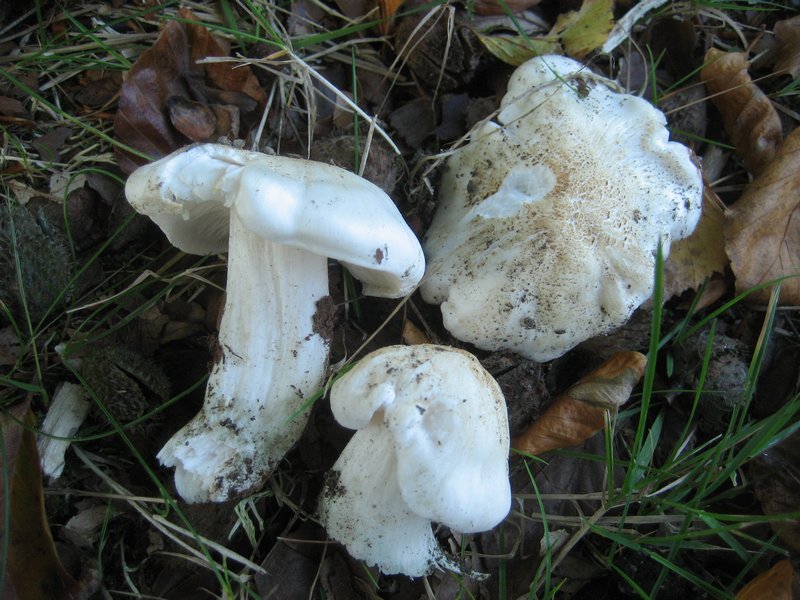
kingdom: Fungi
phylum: Basidiomycota
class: Agaricomycetes
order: Agaricales
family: Tricholomataceae
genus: Tricholoma
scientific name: Tricholoma columbetta
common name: silke-ridderhat
